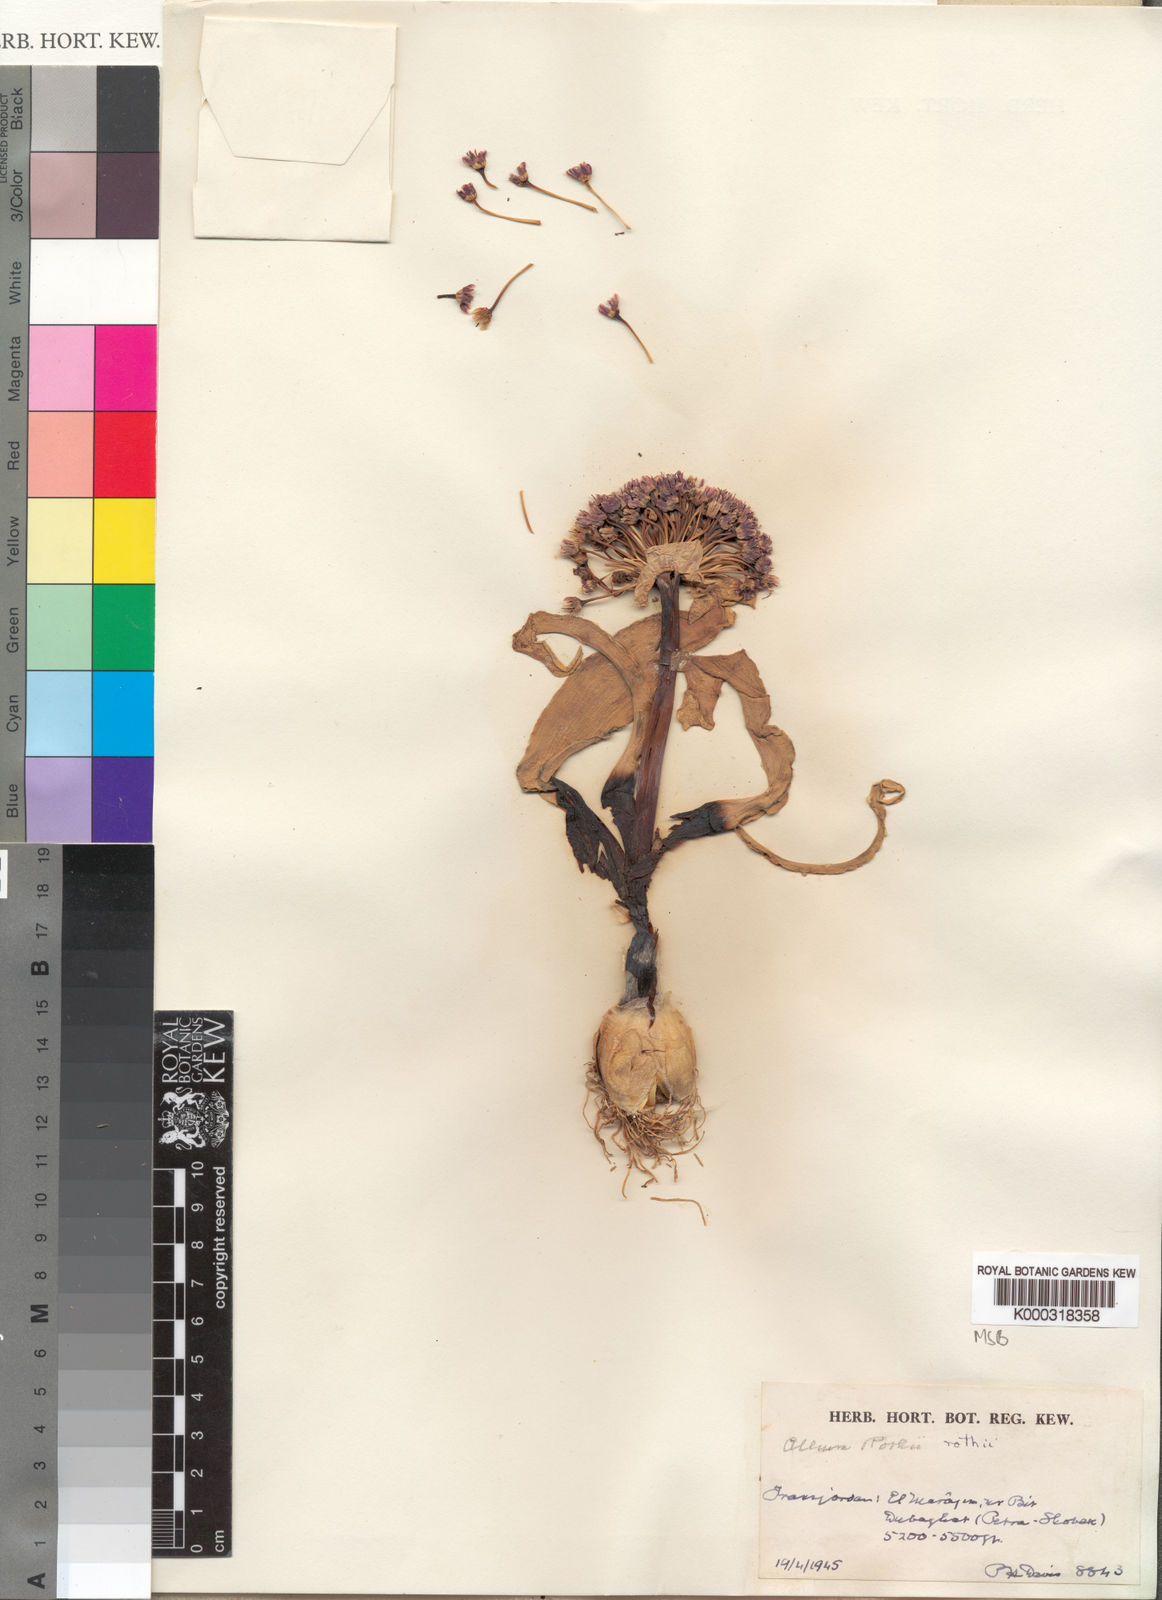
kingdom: Plantae
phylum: Tracheophyta
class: Liliopsida
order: Asparagales
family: Amaryllidaceae
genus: Allium
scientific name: Allium rothii
